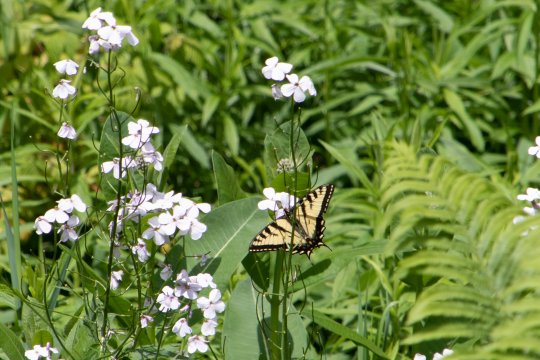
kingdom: Animalia
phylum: Arthropoda
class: Insecta
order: Lepidoptera
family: Papilionidae
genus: Pterourus
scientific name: Pterourus canadensis
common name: Canadian Tiger Swallowtail
